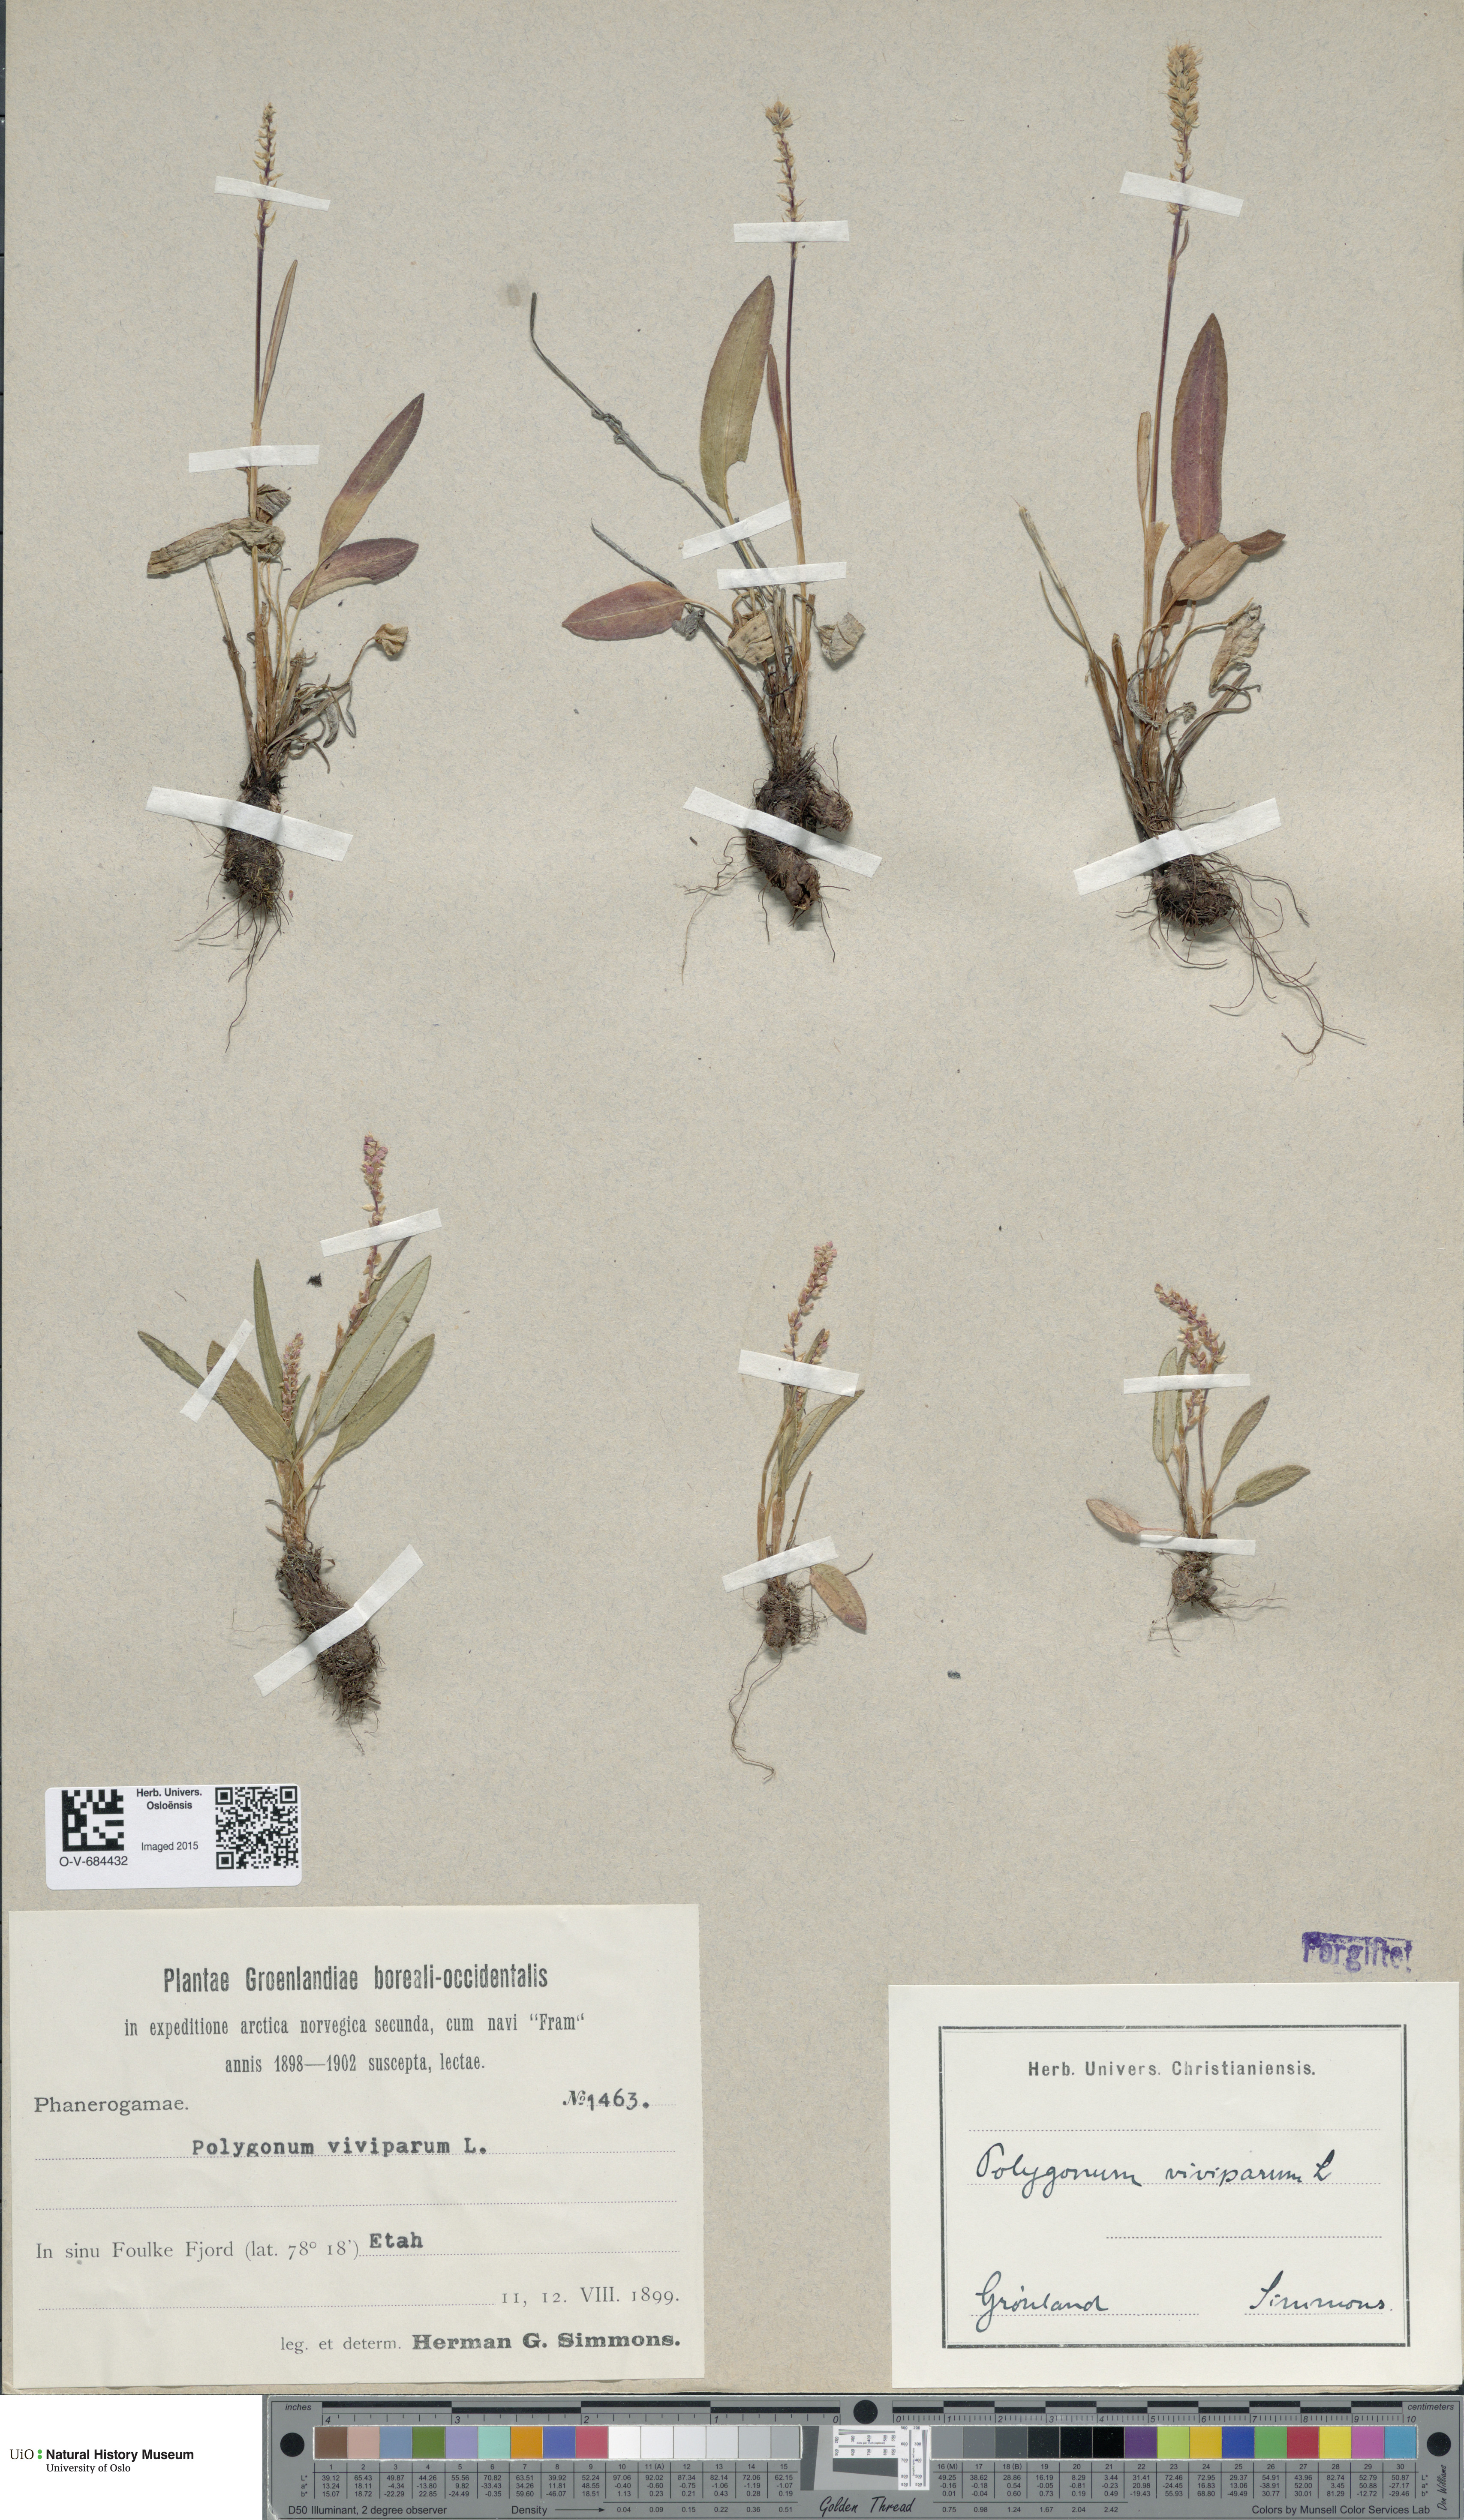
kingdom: Plantae
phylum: Tracheophyta
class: Magnoliopsida
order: Caryophyllales
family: Polygonaceae
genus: Bistorta
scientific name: Bistorta vivipara
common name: Alpine bistort
